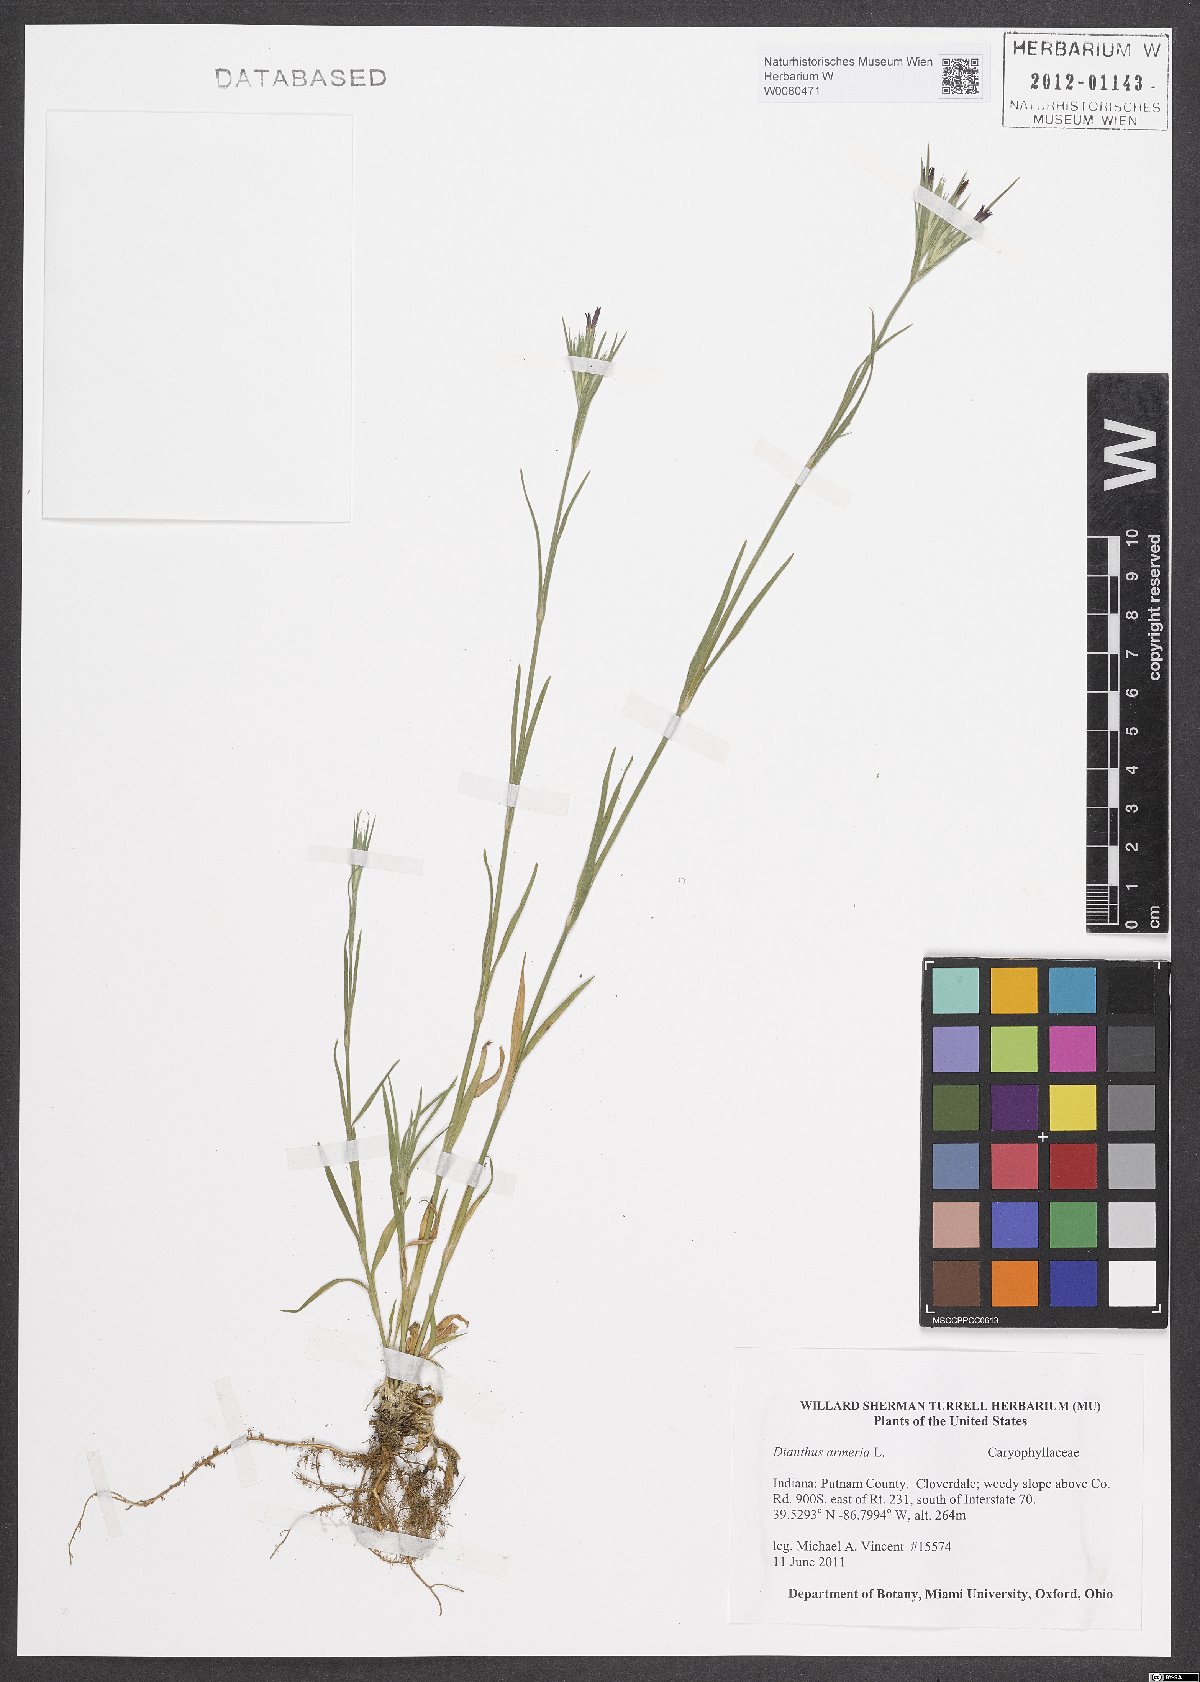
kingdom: Plantae
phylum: Tracheophyta
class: Magnoliopsida
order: Caryophyllales
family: Caryophyllaceae
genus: Dianthus
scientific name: Dianthus armeria
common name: Deptford pink
